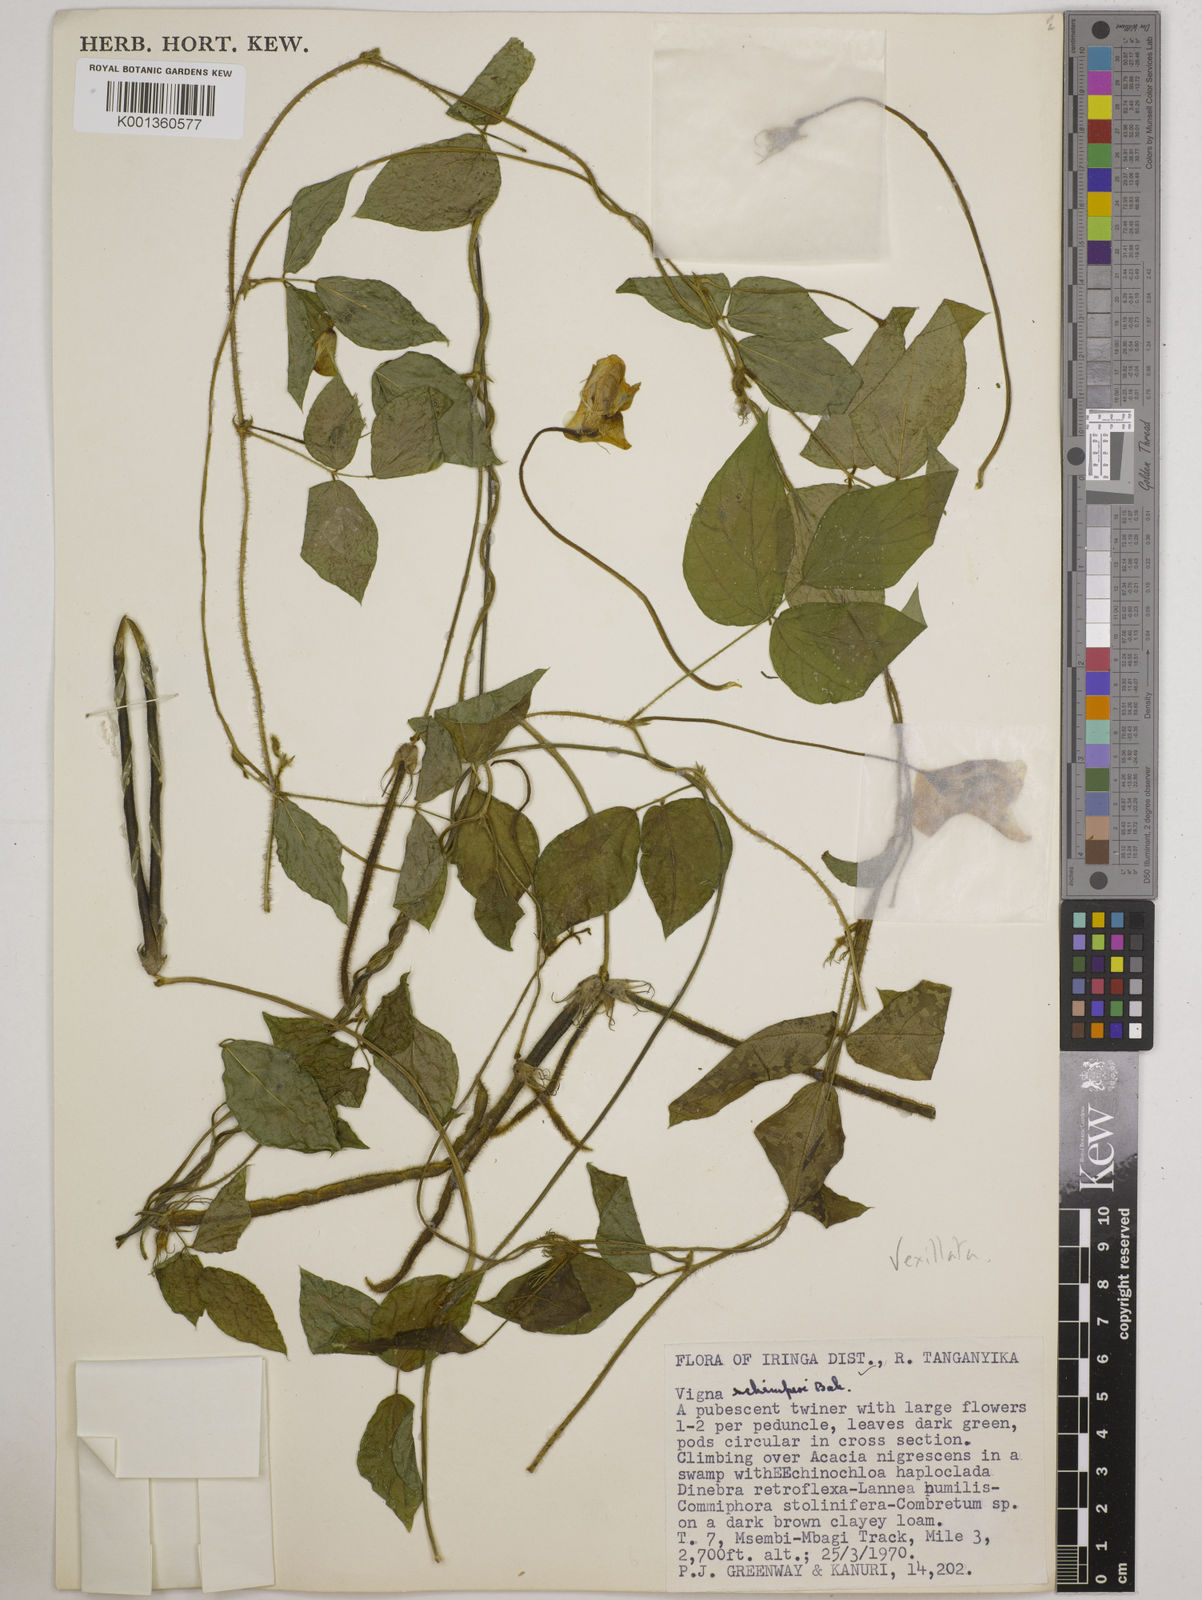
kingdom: Plantae
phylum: Tracheophyta
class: Magnoliopsida
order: Fabales
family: Fabaceae
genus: Vigna
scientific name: Vigna vexillata
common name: Zombi pea
